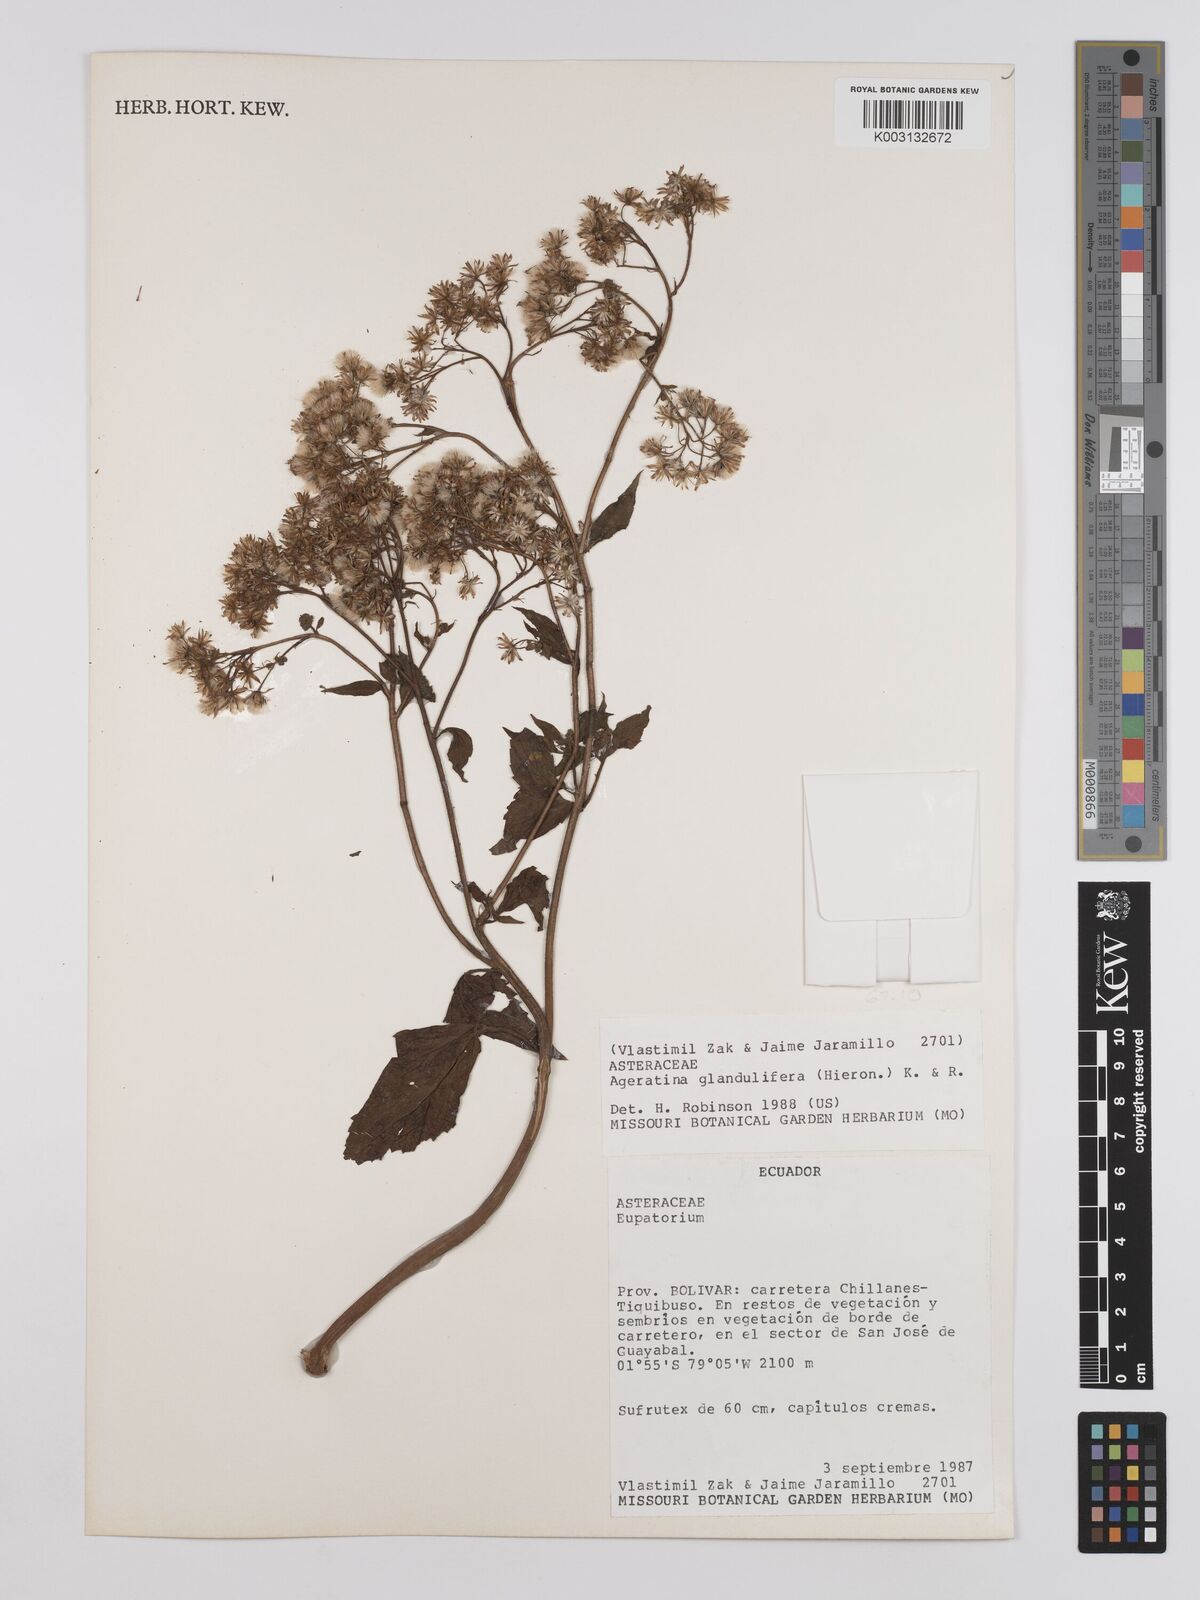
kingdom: Plantae
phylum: Tracheophyta
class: Magnoliopsida
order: Asterales
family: Asteraceae
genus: Ageratina
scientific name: Ageratina glandulifera
